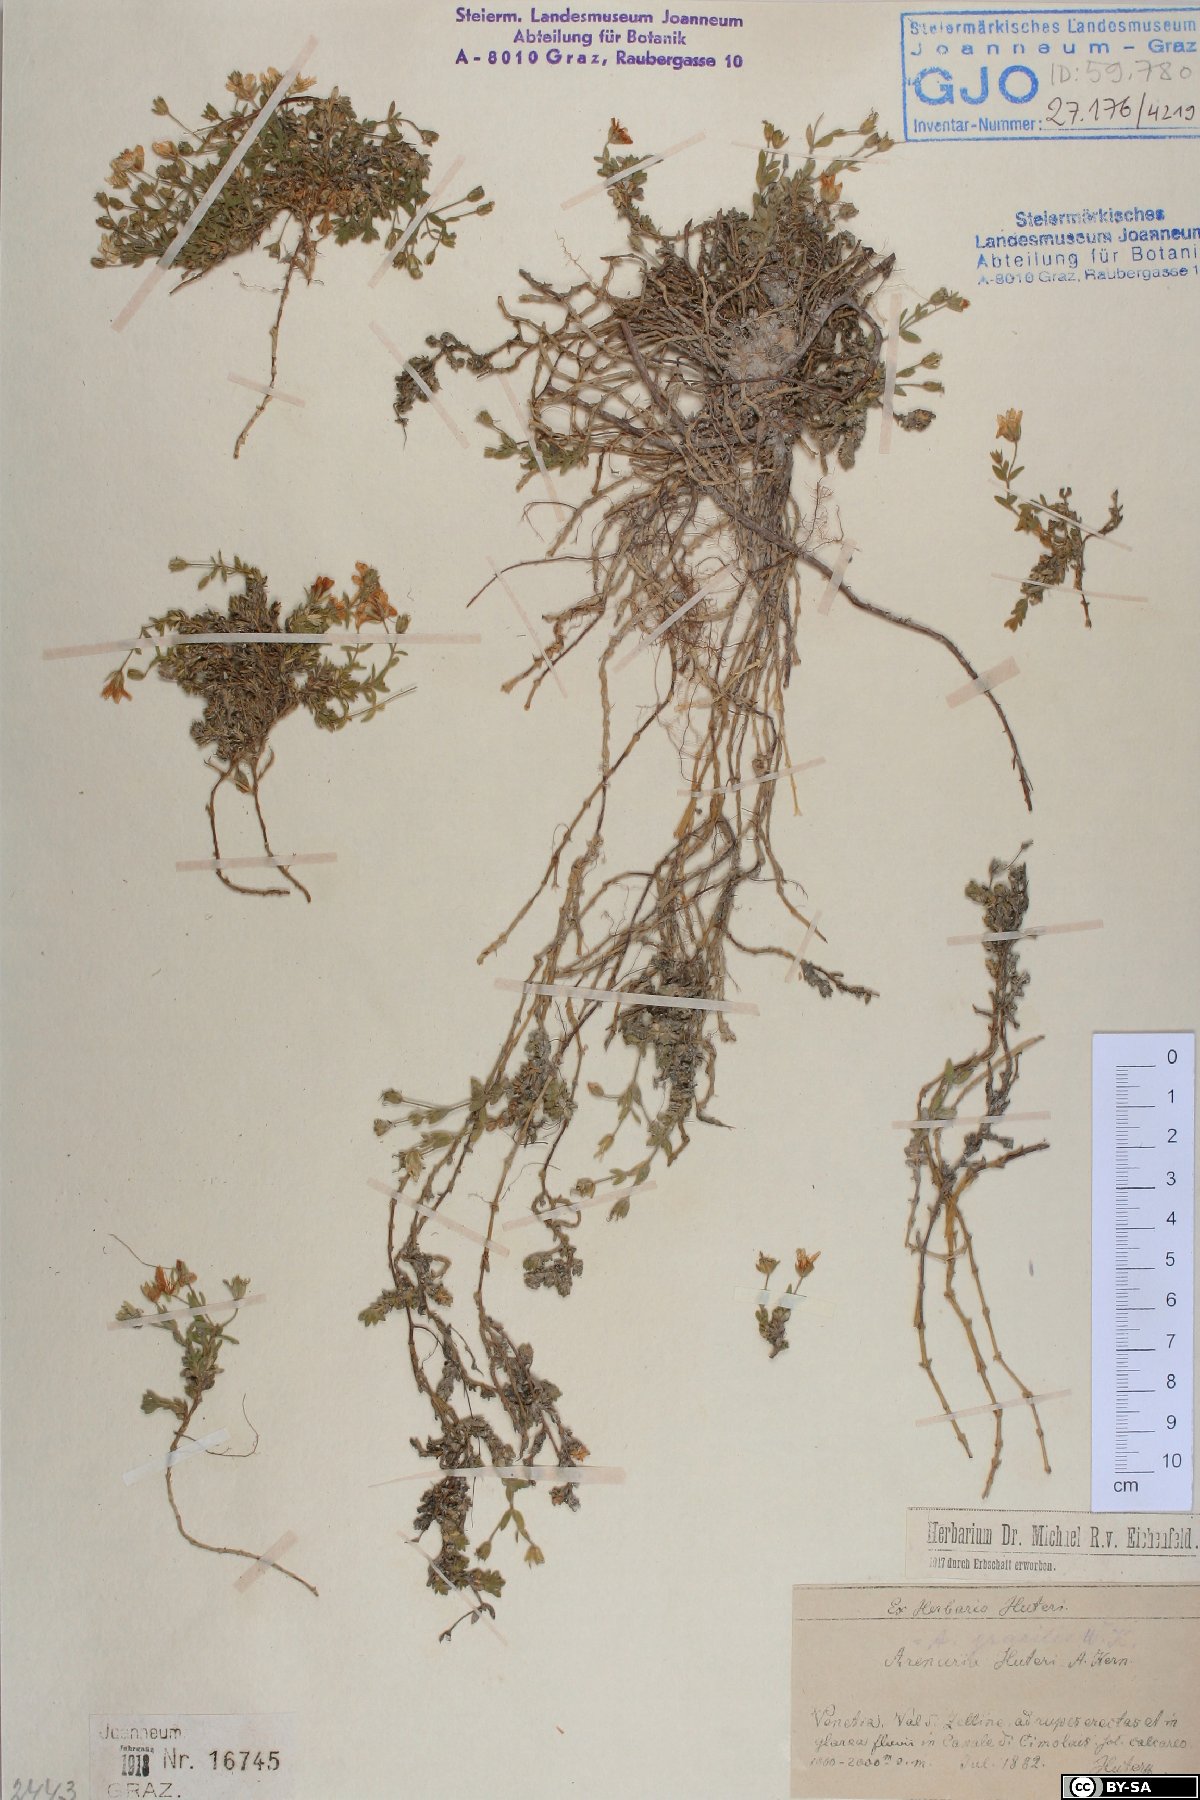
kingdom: Plantae
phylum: Tracheophyta
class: Magnoliopsida
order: Caryophyllales
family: Caryophyllaceae
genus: Arenaria
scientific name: Arenaria huteri
